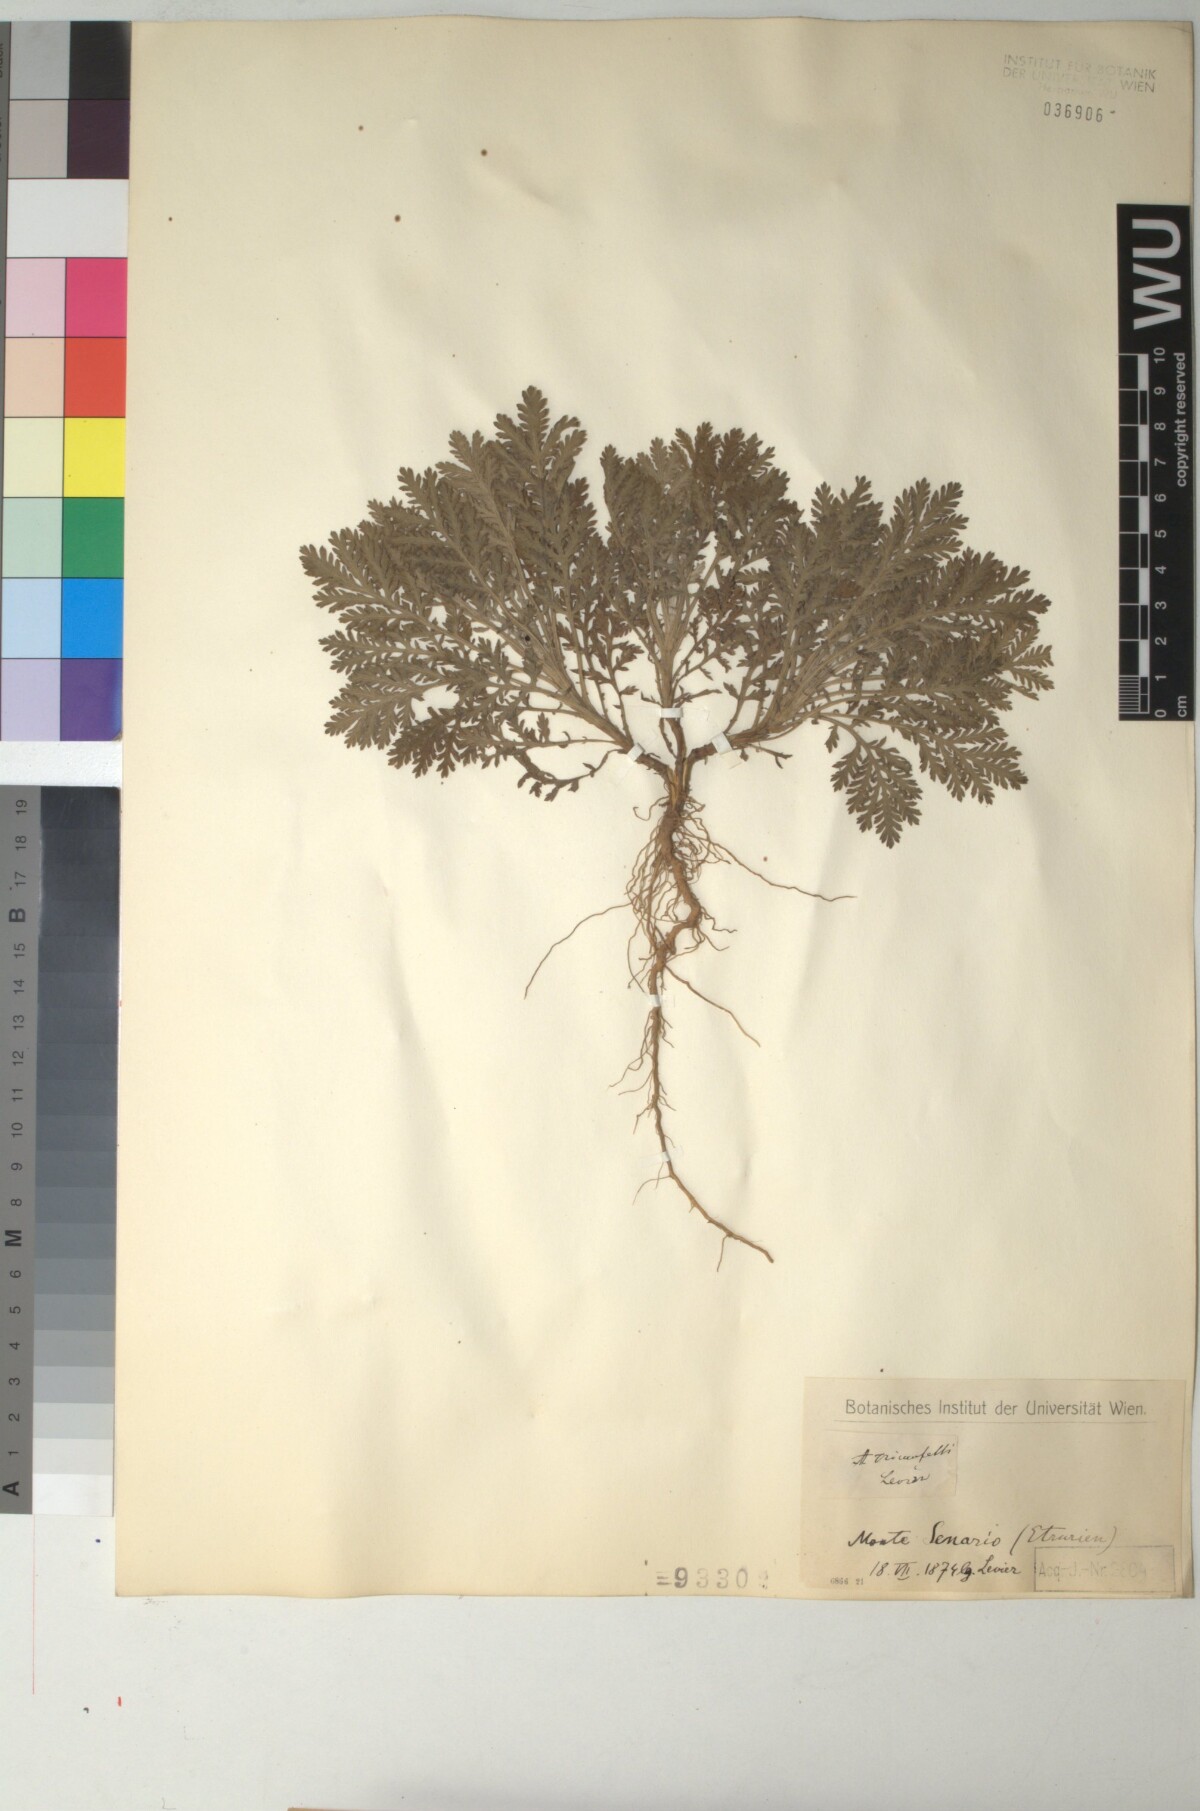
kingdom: Plantae
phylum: Tracheophyta
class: Magnoliopsida
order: Asterales
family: Asteraceae
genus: Cota
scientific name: Cota triumfetti
